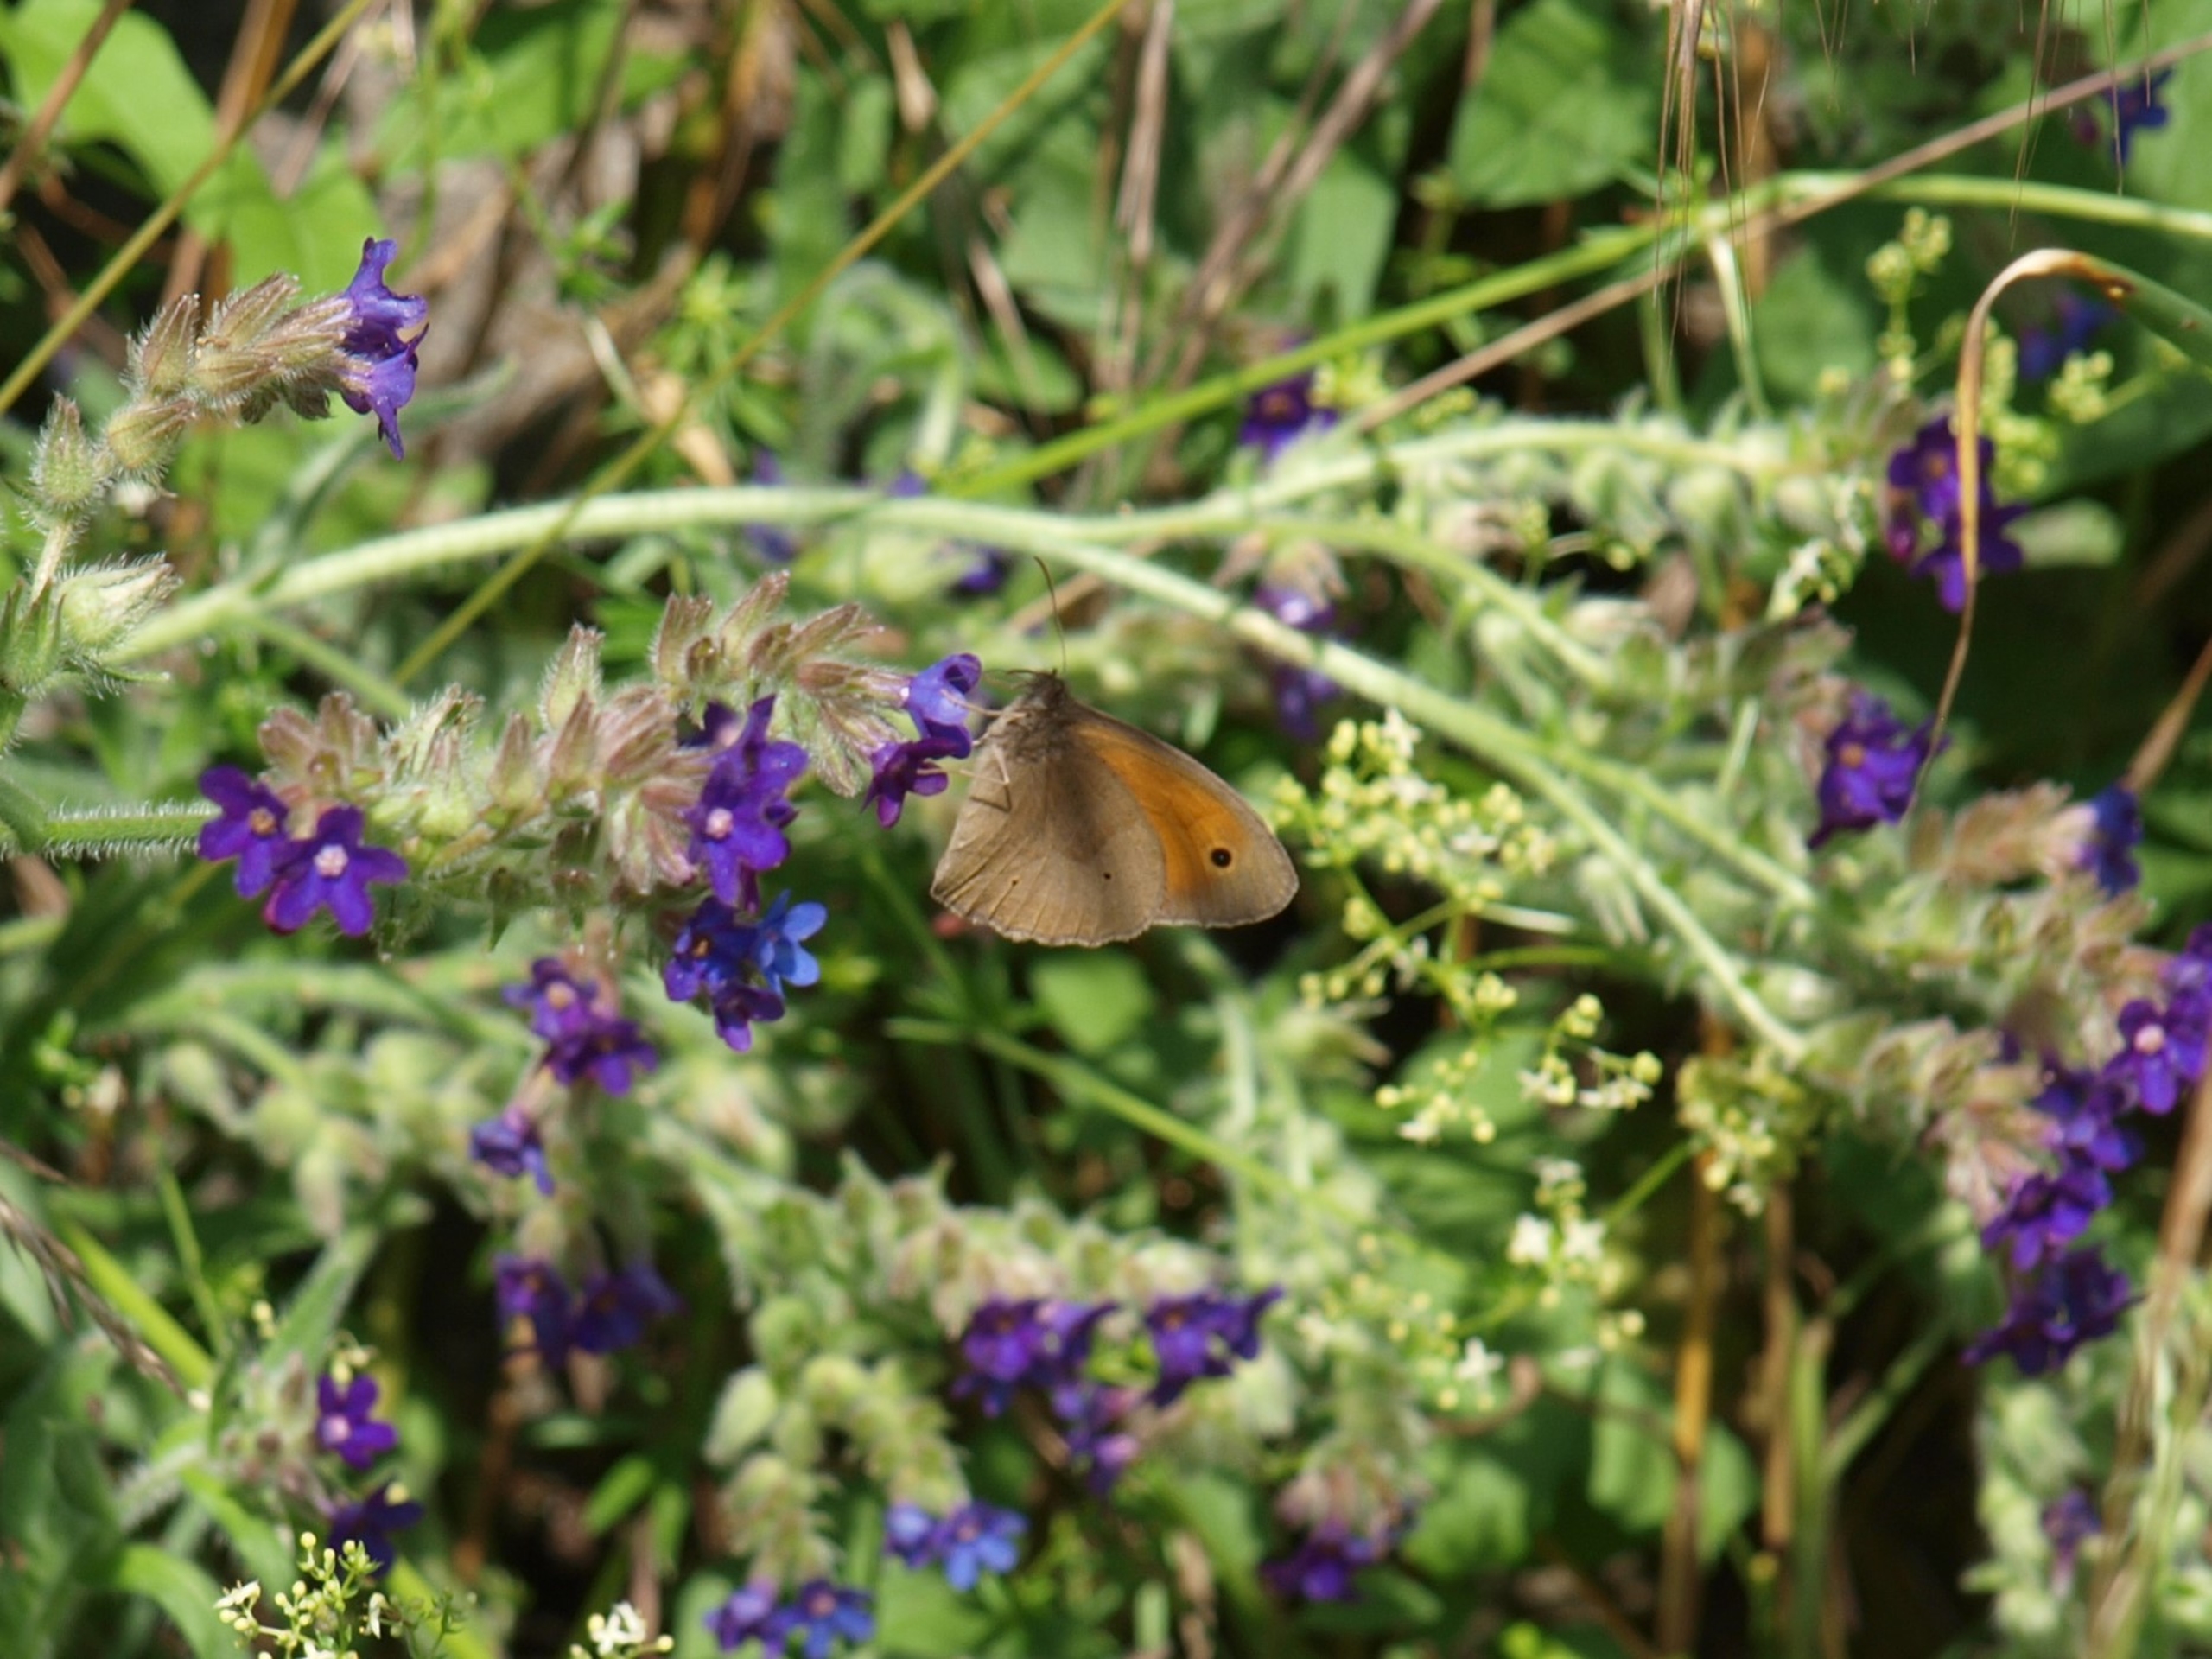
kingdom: Animalia
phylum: Arthropoda
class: Insecta
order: Lepidoptera
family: Nymphalidae
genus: Maniola
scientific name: Maniola jurtina
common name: Græsrandøje
